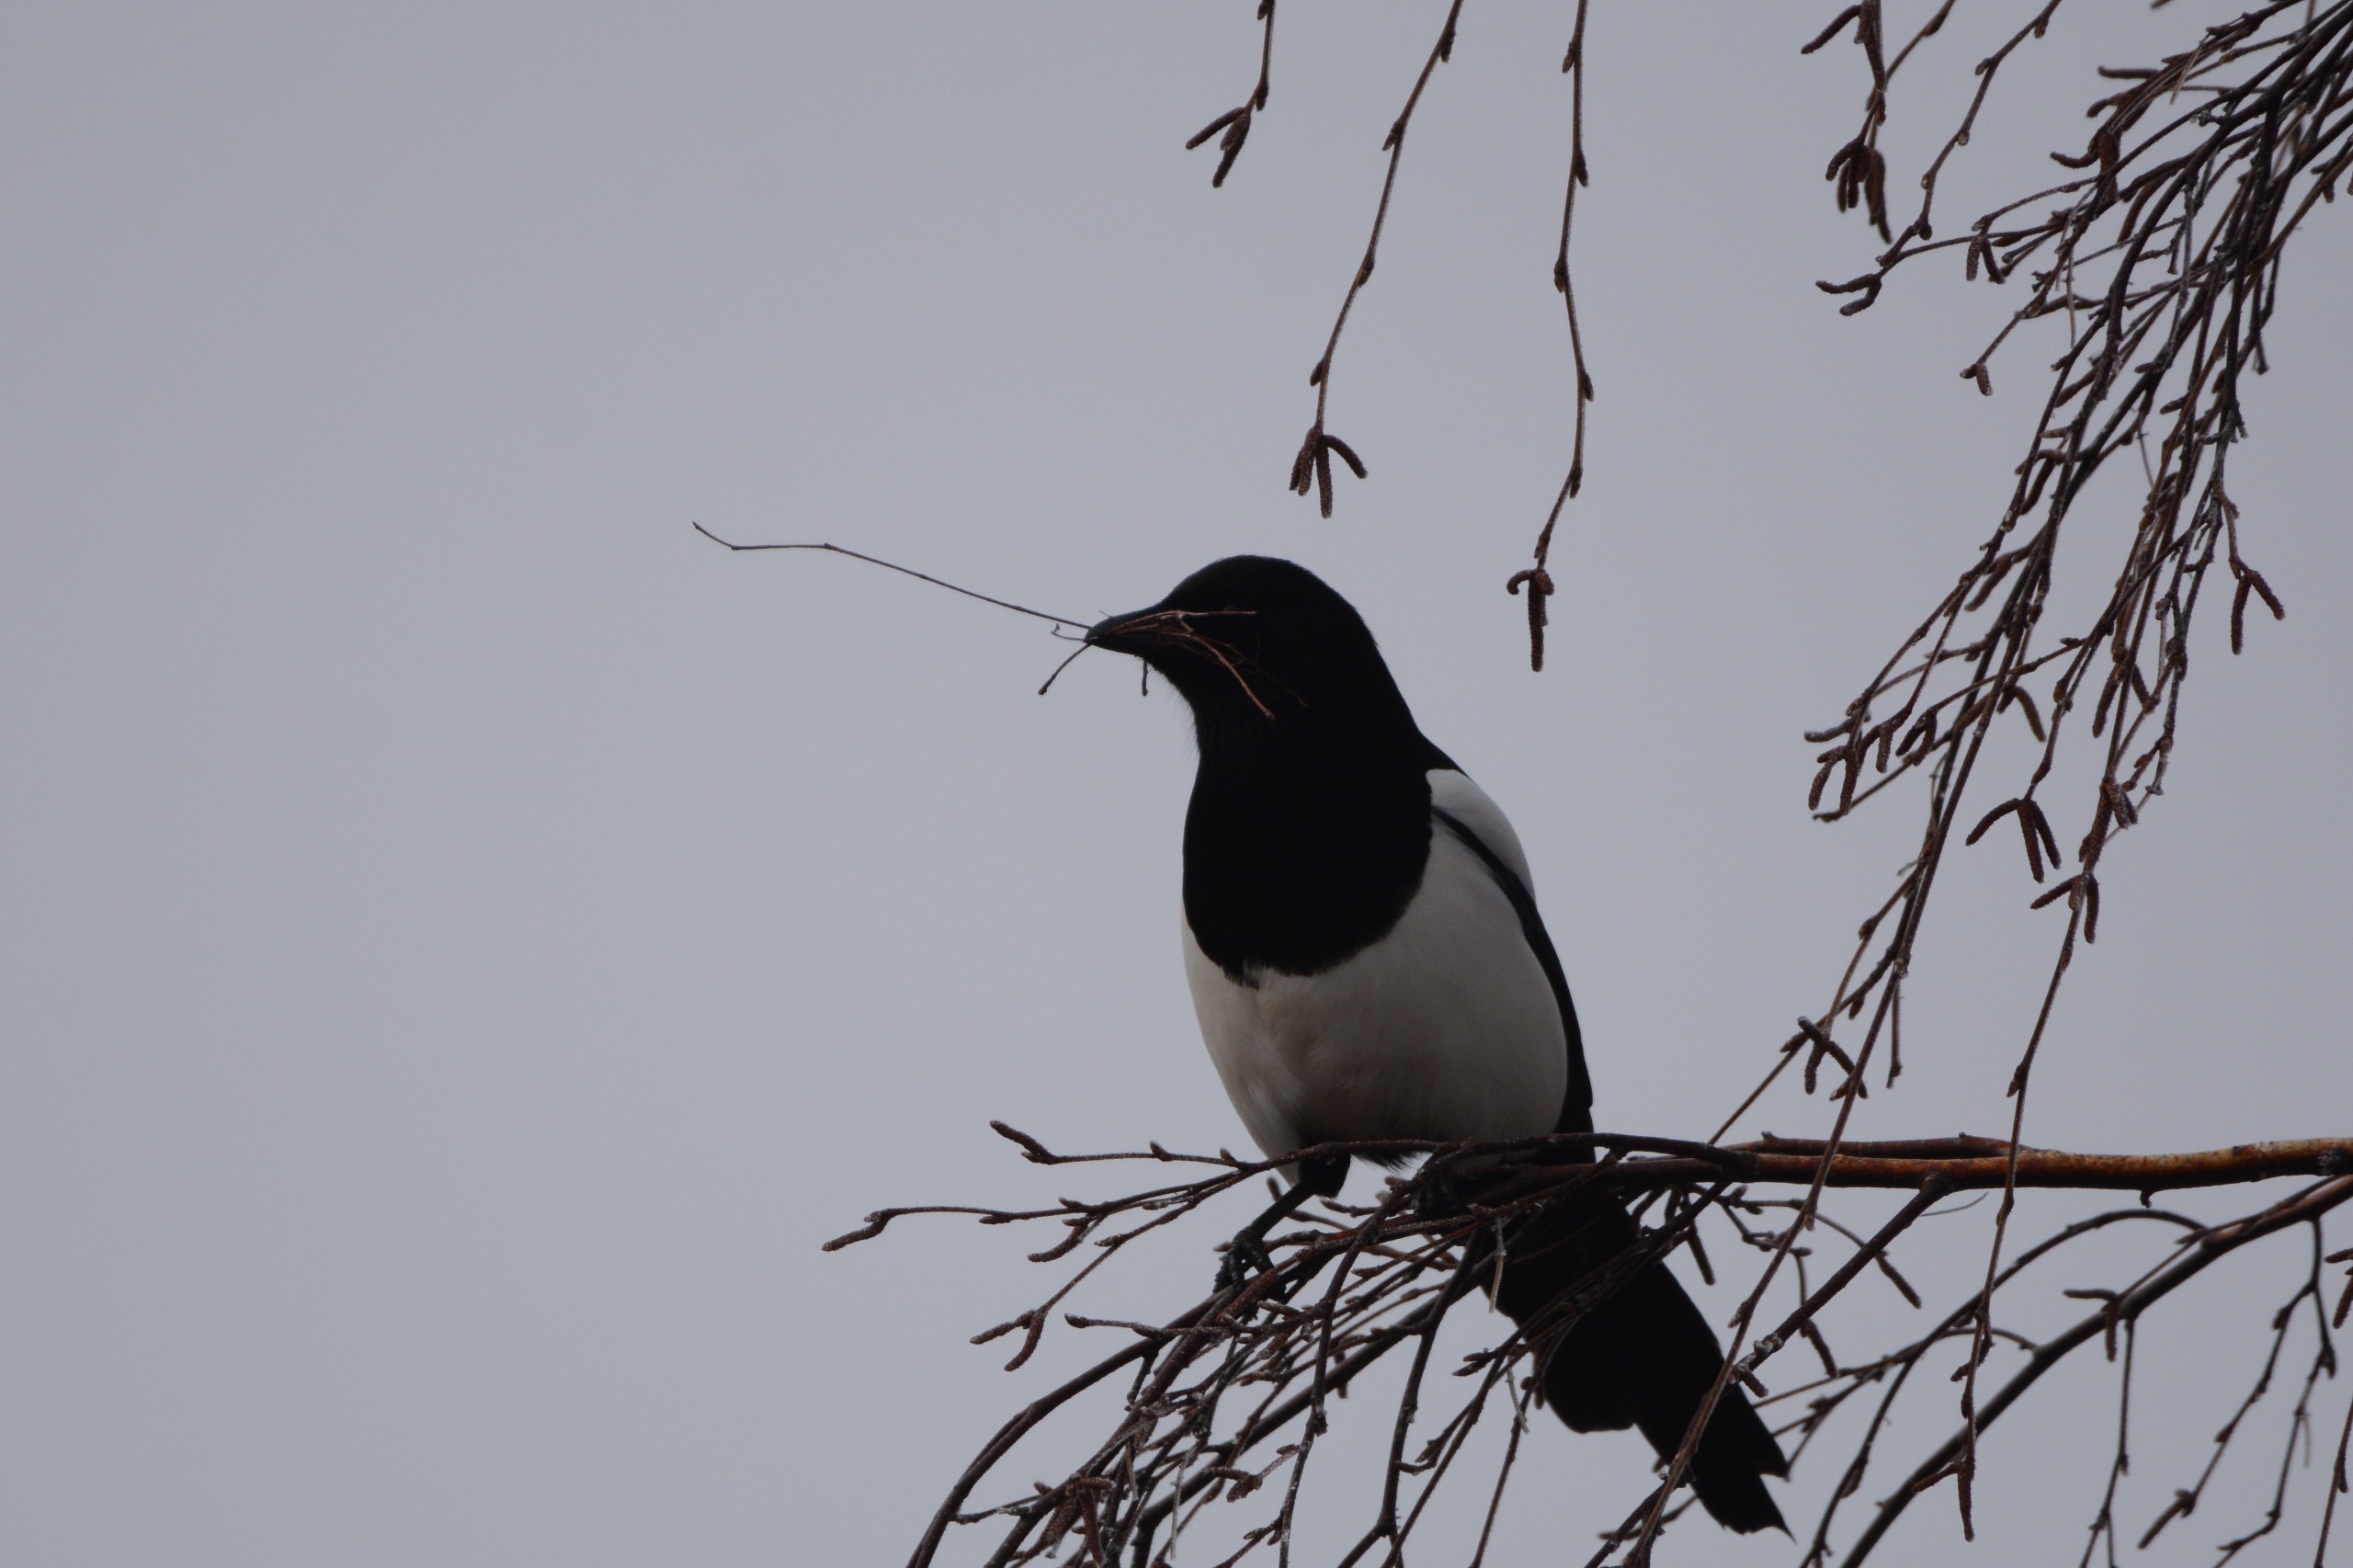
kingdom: Animalia
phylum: Chordata
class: Aves
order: Passeriformes
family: Corvidae
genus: Pica
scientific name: Pica pica
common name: Husskade
